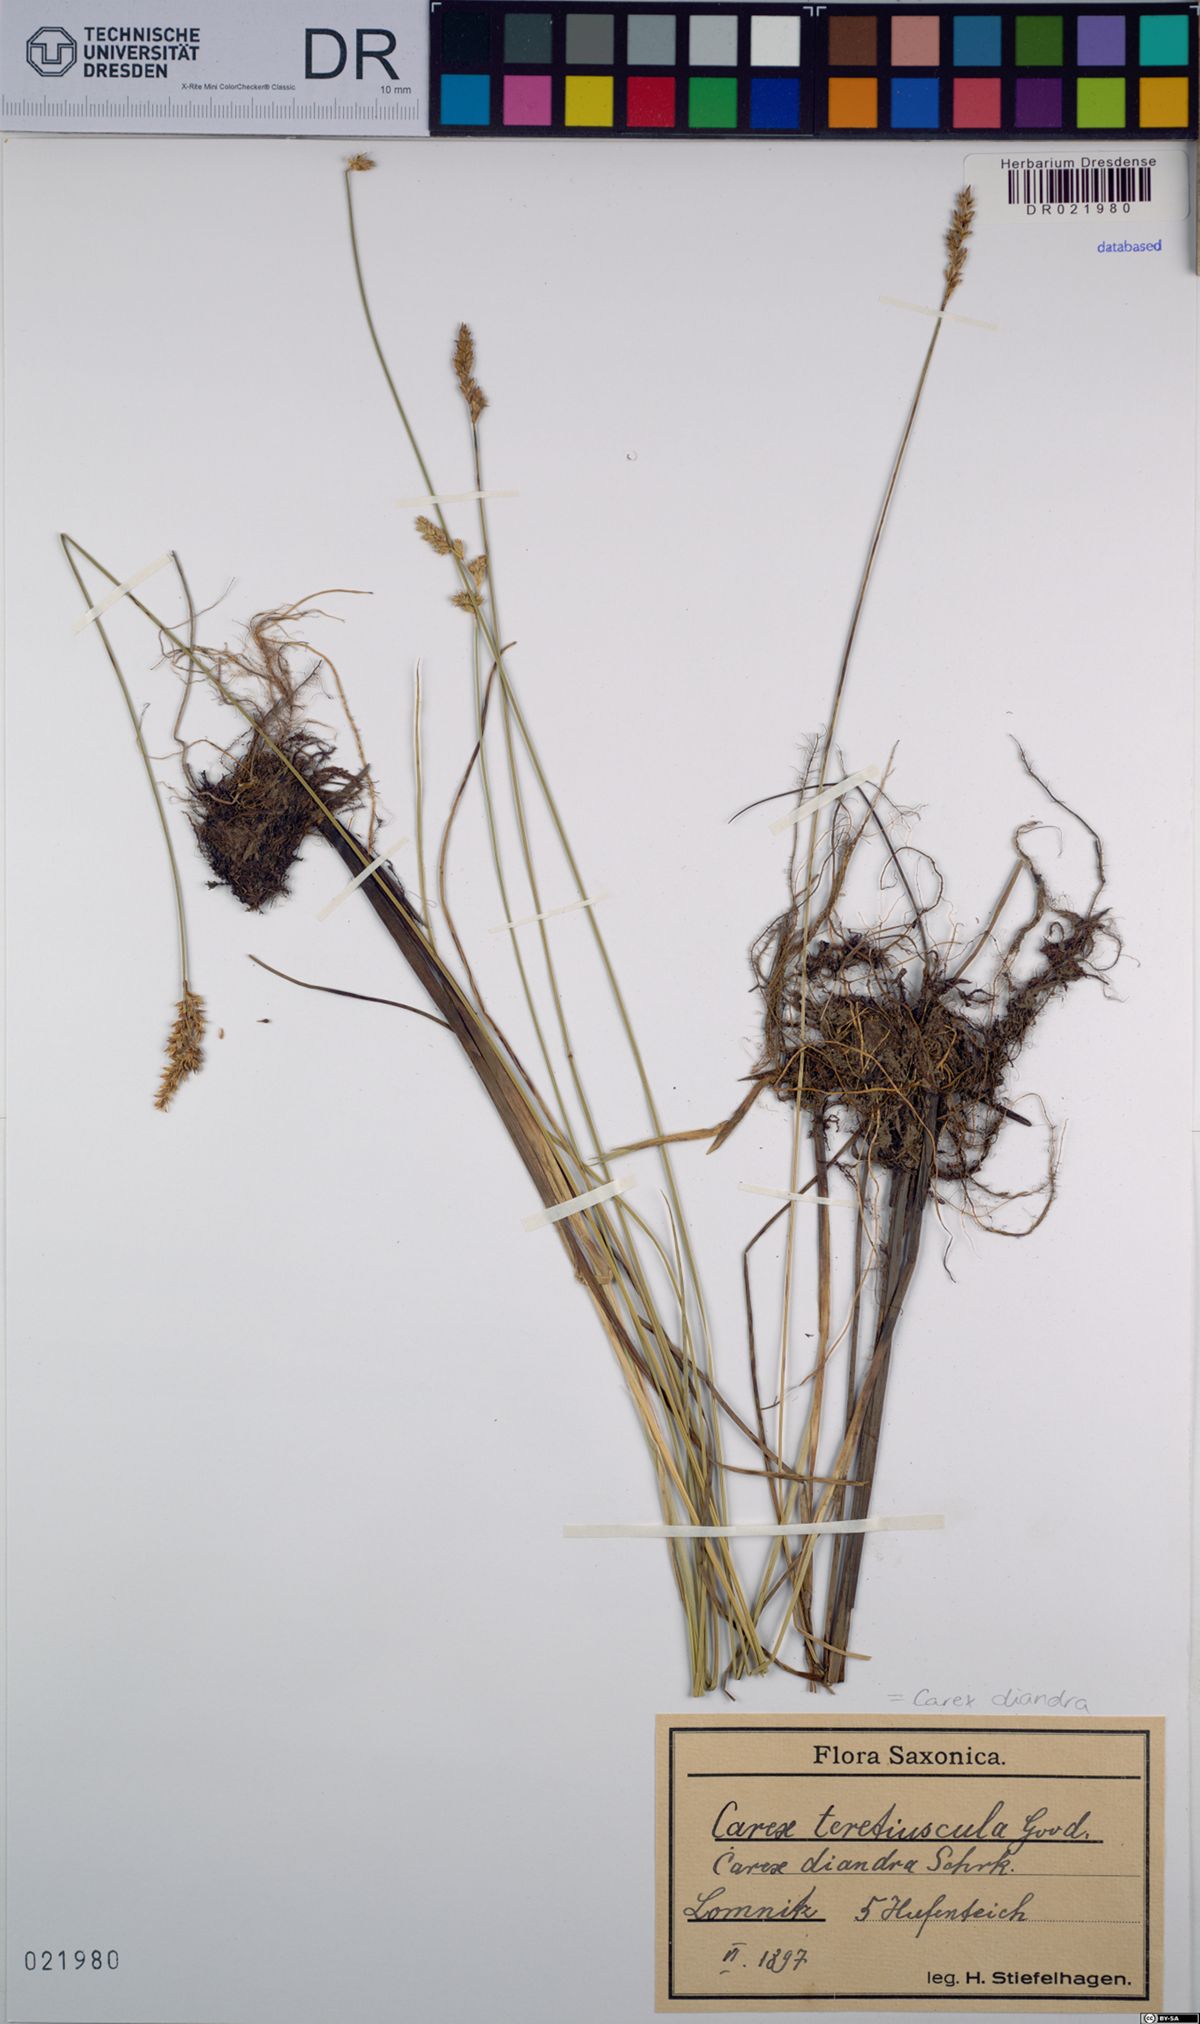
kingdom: Plantae
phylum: Tracheophyta
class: Liliopsida
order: Poales
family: Cyperaceae
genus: Carex
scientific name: Carex diandra
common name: Lesser tussock-sedge
